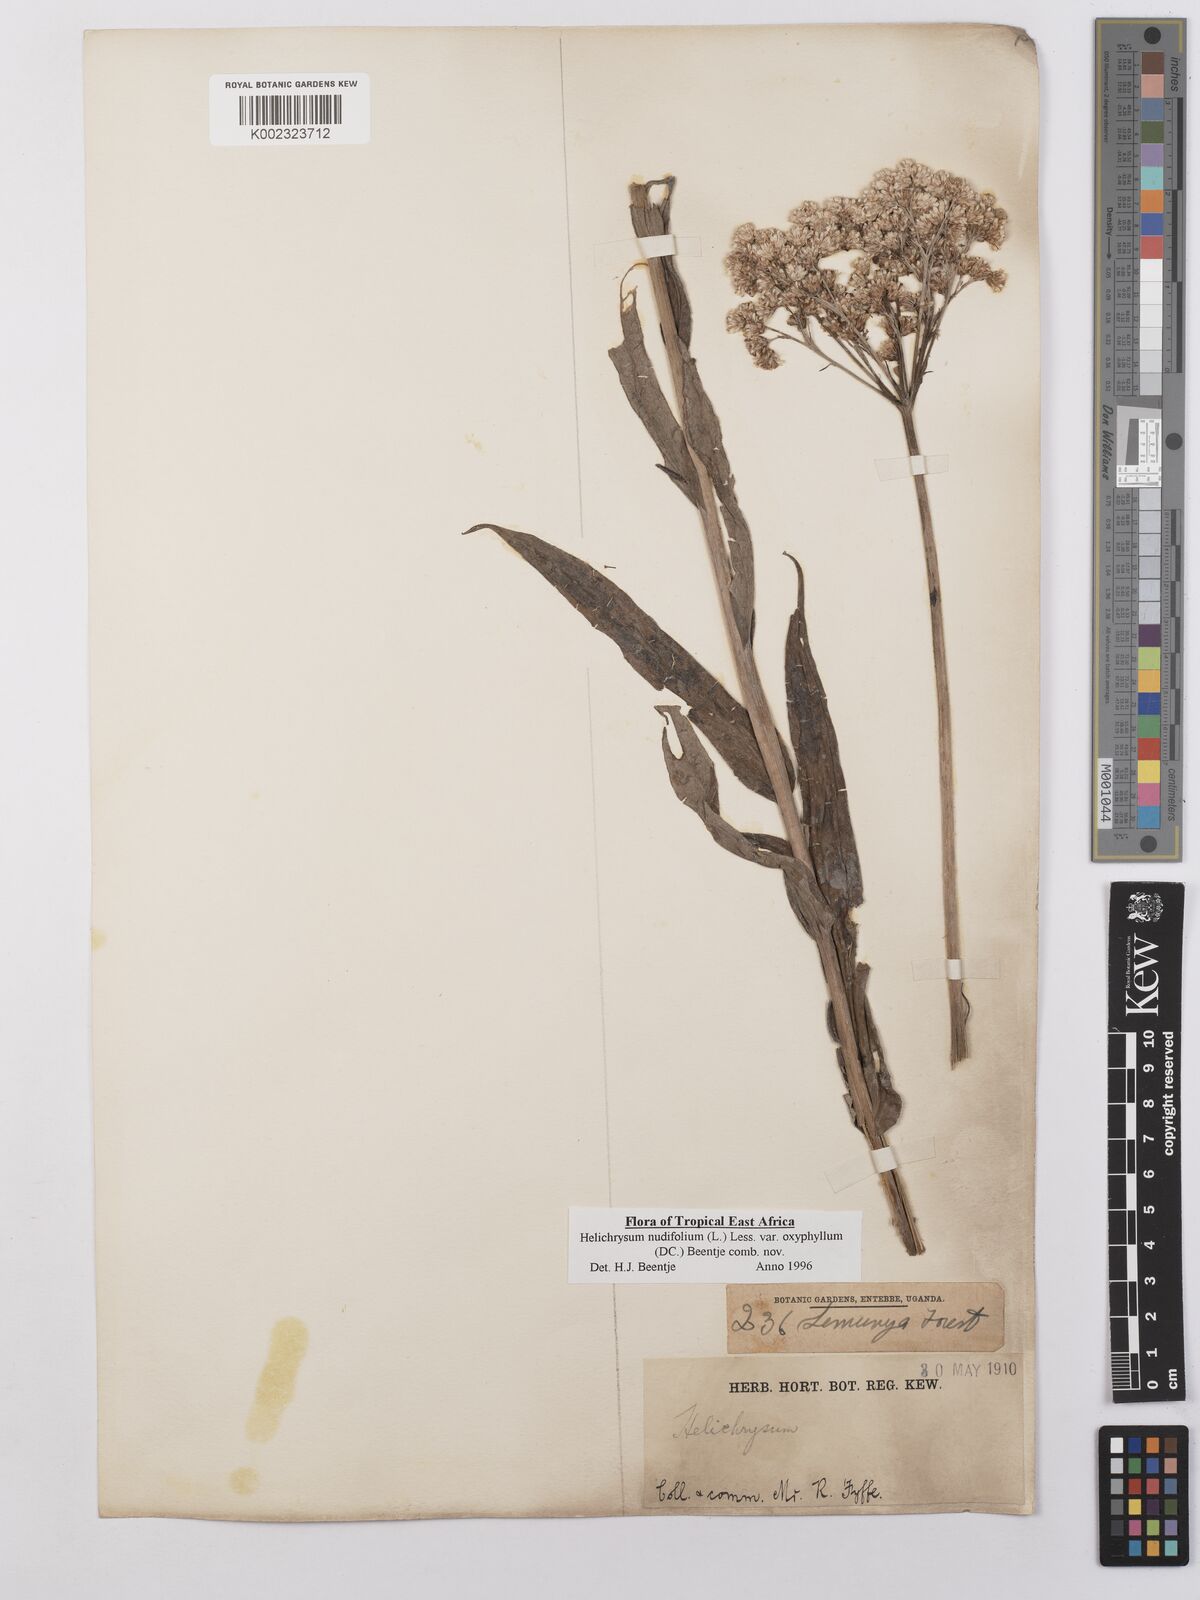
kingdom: Plantae
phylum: Tracheophyta
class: Magnoliopsida
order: Asterales
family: Asteraceae
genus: Helichrysum
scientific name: Helichrysum nudifolium
